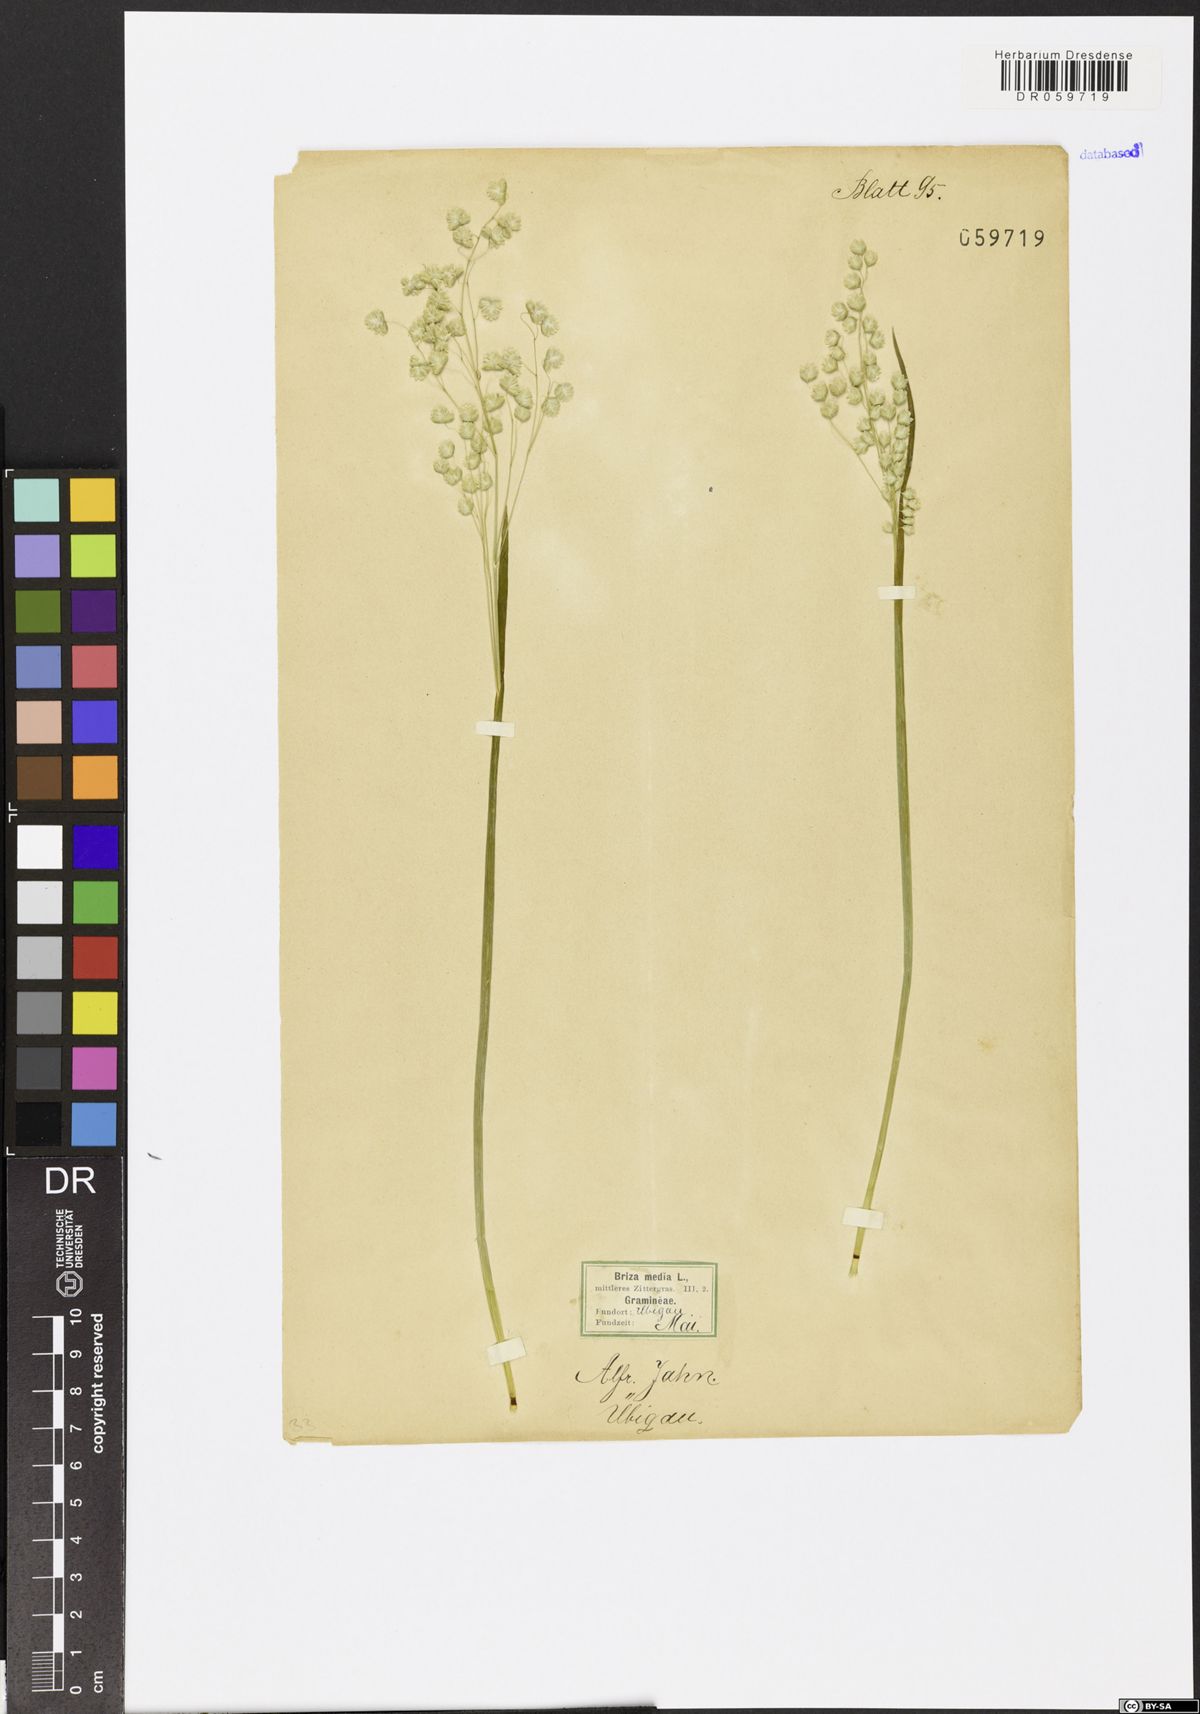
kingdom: Plantae
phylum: Tracheophyta
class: Liliopsida
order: Poales
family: Poaceae
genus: Briza
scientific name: Briza media
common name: Quaking grass
